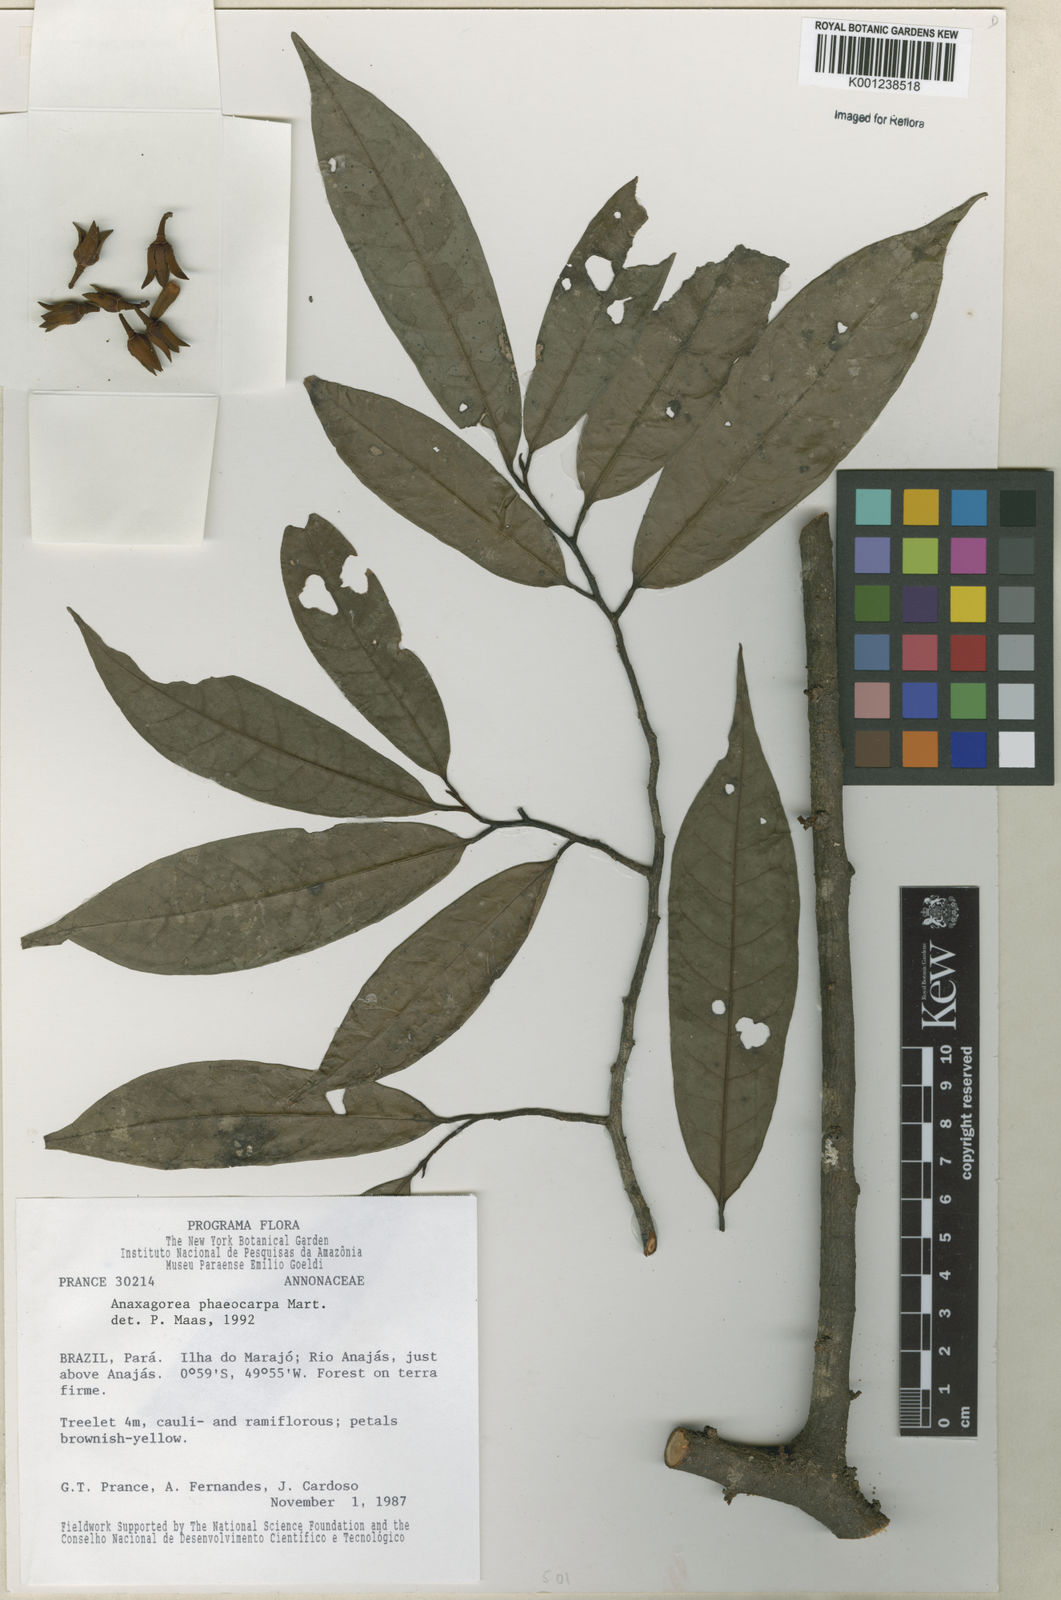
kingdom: Plantae
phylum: Tracheophyta
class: Magnoliopsida
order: Magnoliales
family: Annonaceae
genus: Anaxagorea
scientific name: Anaxagorea phaeocarpa
